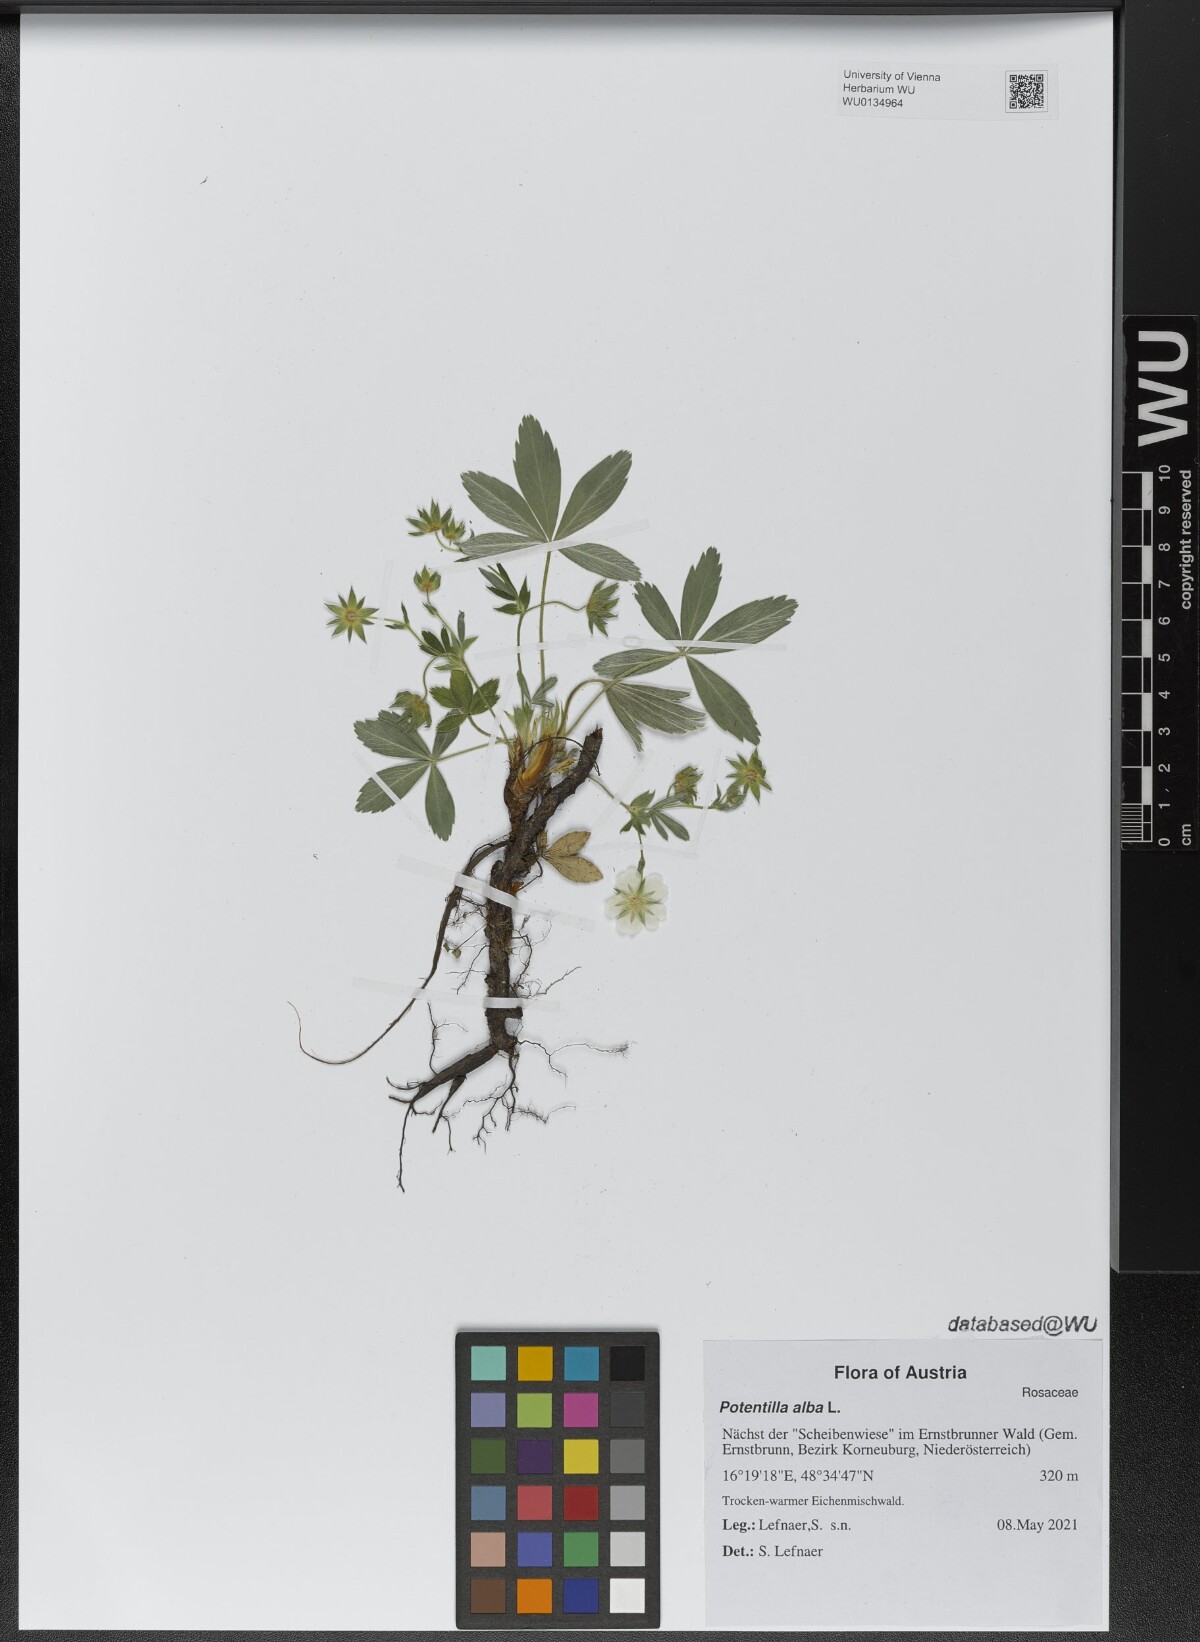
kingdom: Plantae
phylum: Tracheophyta
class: Magnoliopsida
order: Rosales
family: Rosaceae
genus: Potentilla
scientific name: Potentilla alba
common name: White cinquefoil
